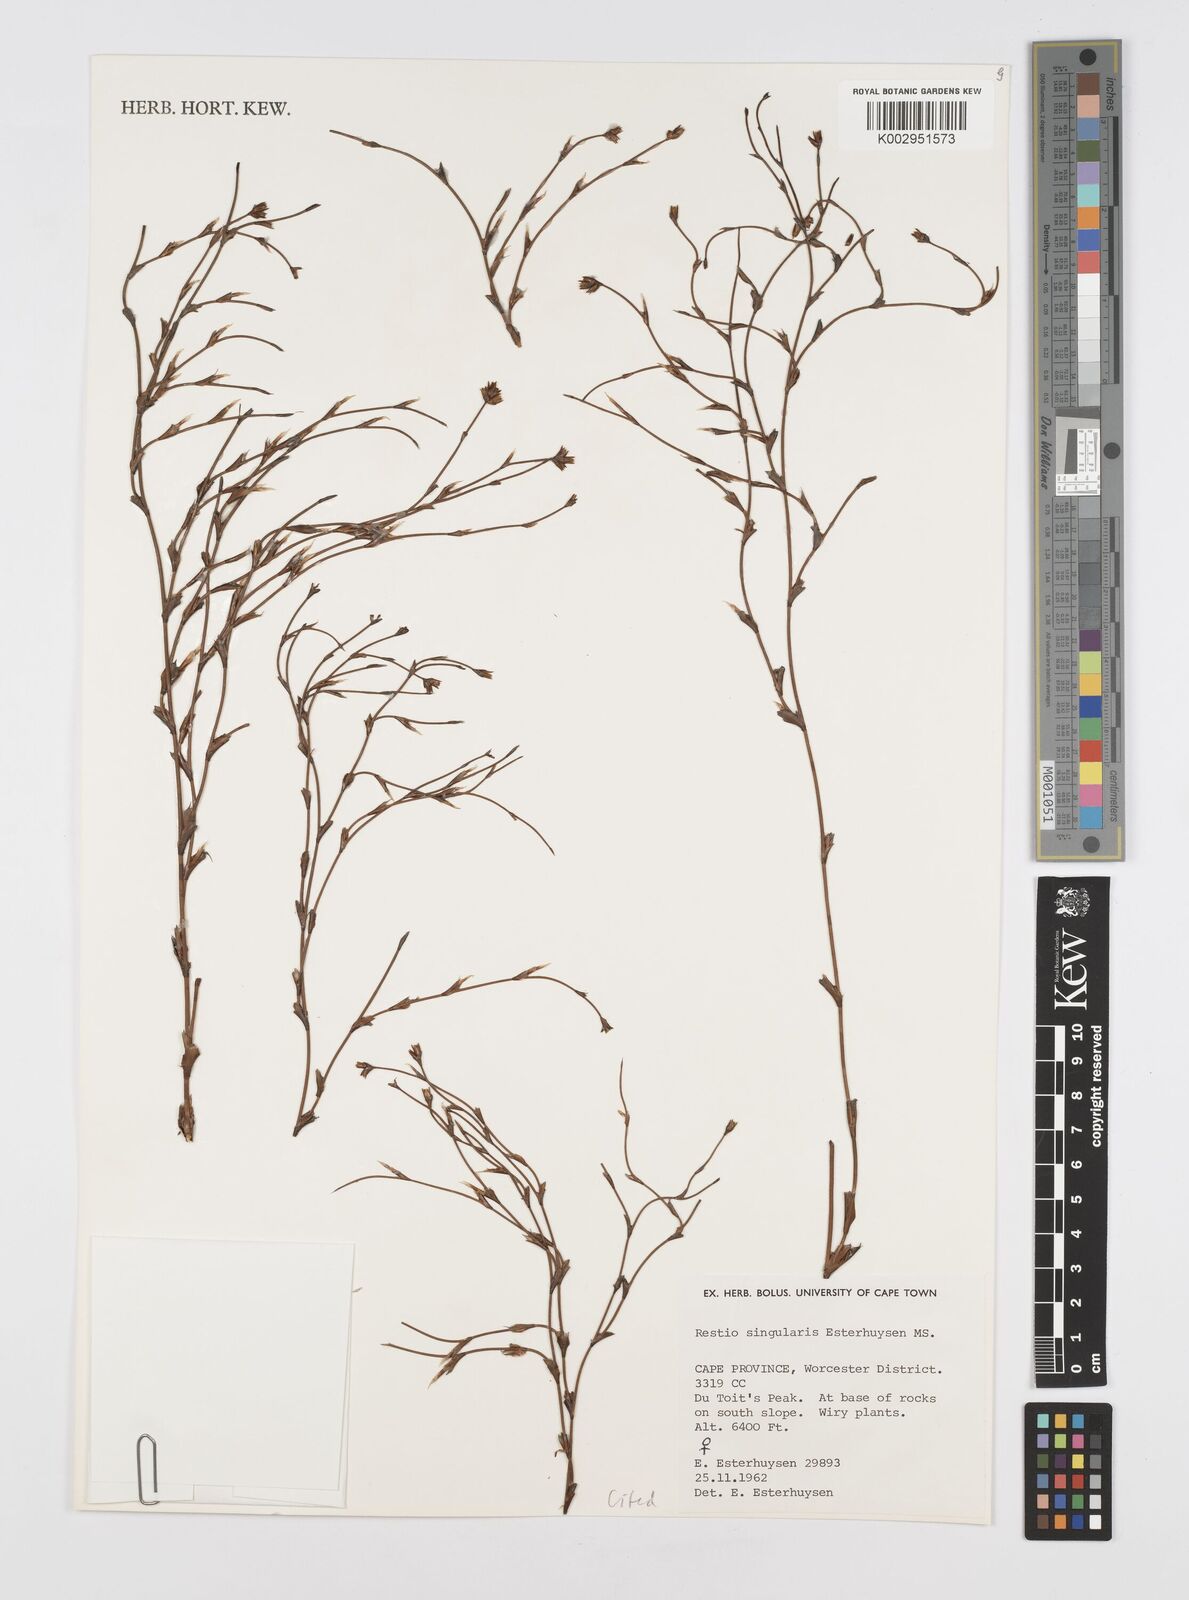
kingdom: Plantae
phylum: Tracheophyta
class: Liliopsida
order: Poales
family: Restionaceae
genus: Restio
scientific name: Restio singularis
